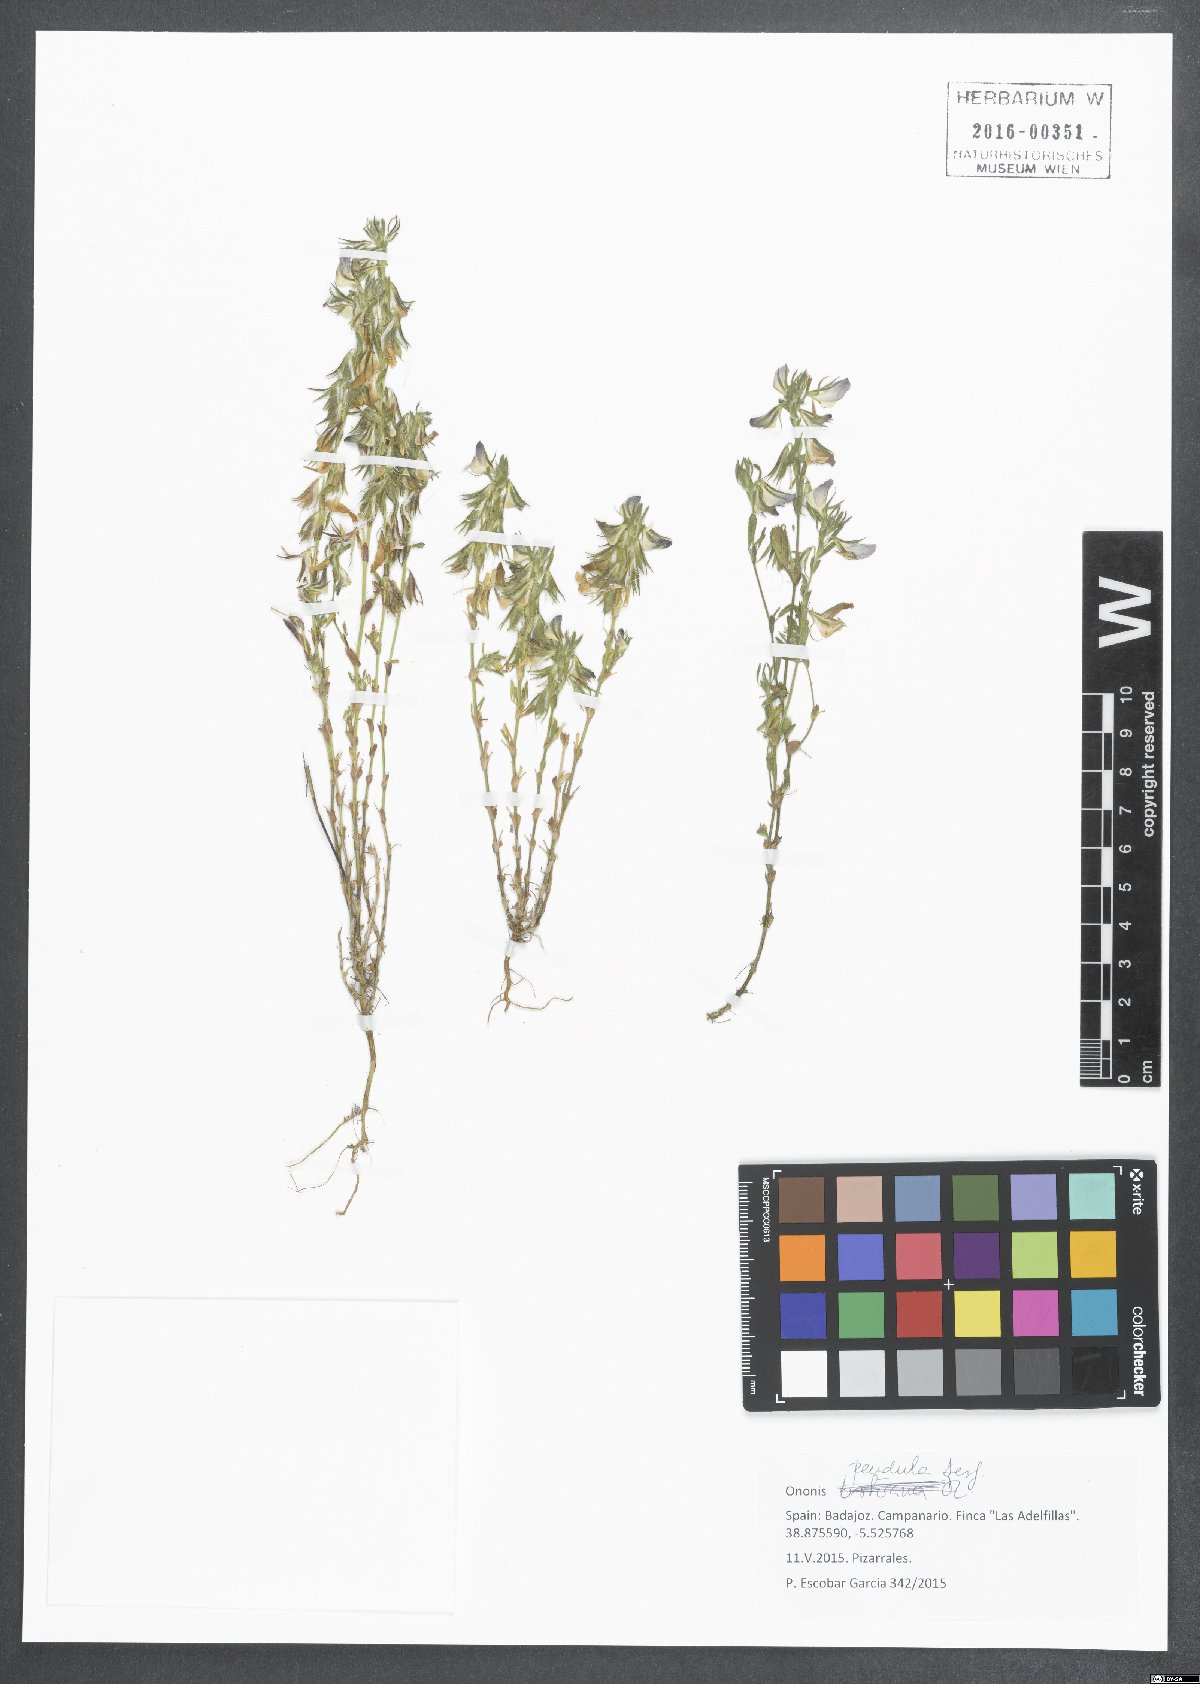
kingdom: Plantae
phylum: Tracheophyta
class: Magnoliopsida
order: Fabales
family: Fabaceae
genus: Ononis
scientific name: Ononis pendula
